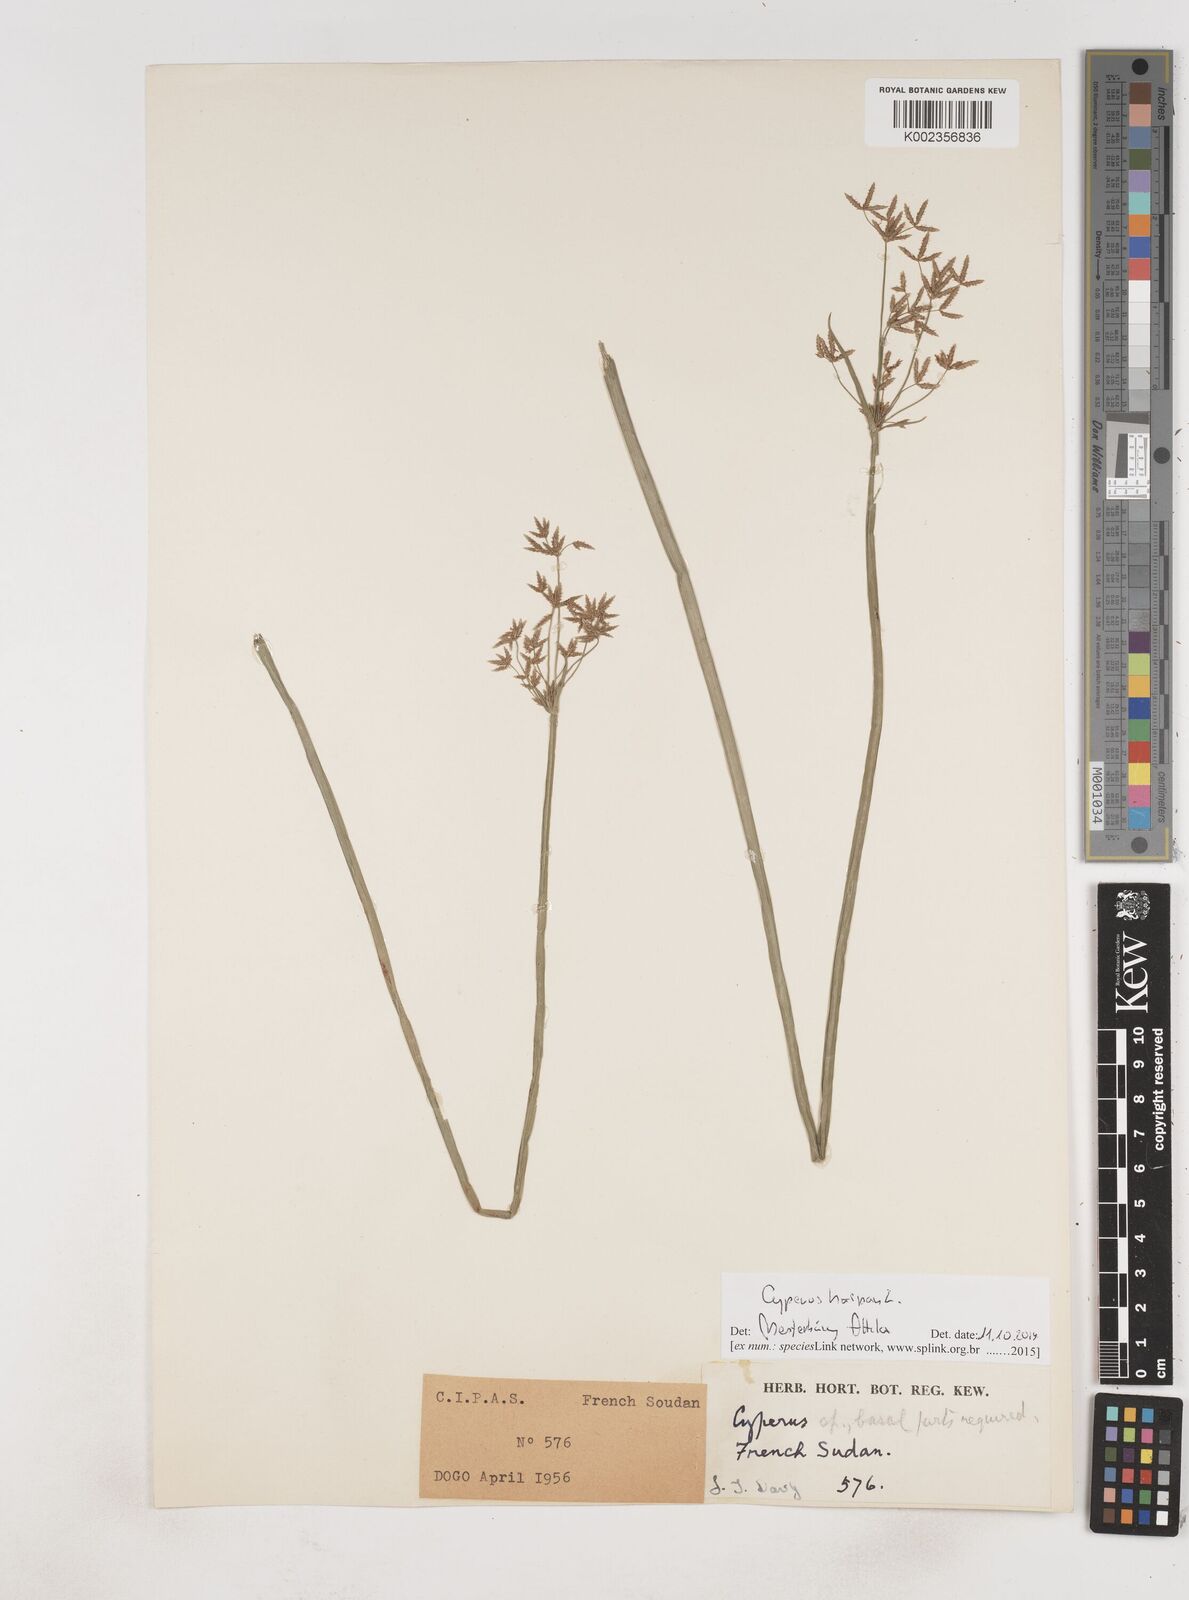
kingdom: Plantae
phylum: Tracheophyta
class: Liliopsida
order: Poales
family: Cyperaceae
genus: Cyperus
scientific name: Cyperus haspan
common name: Haspan flatsedge
